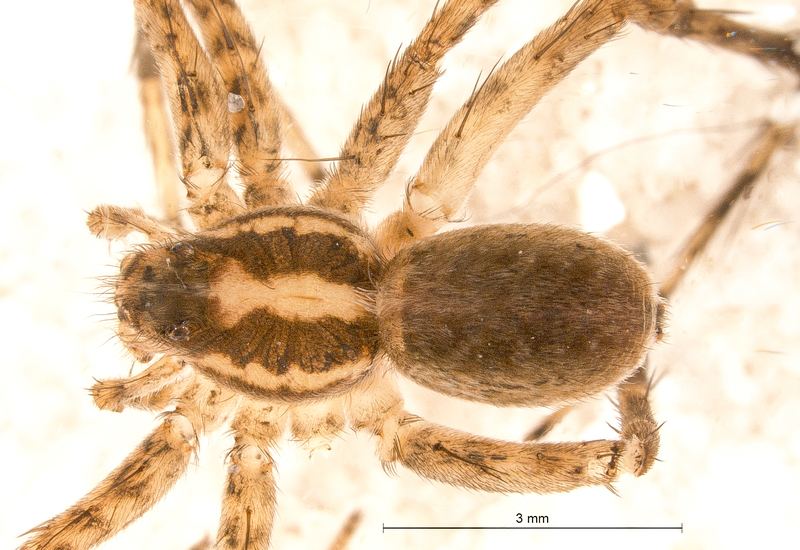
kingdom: Animalia
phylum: Arthropoda
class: Arachnida
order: Araneae
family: Lycosidae
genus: Pardosa
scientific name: Pardosa agrestis
